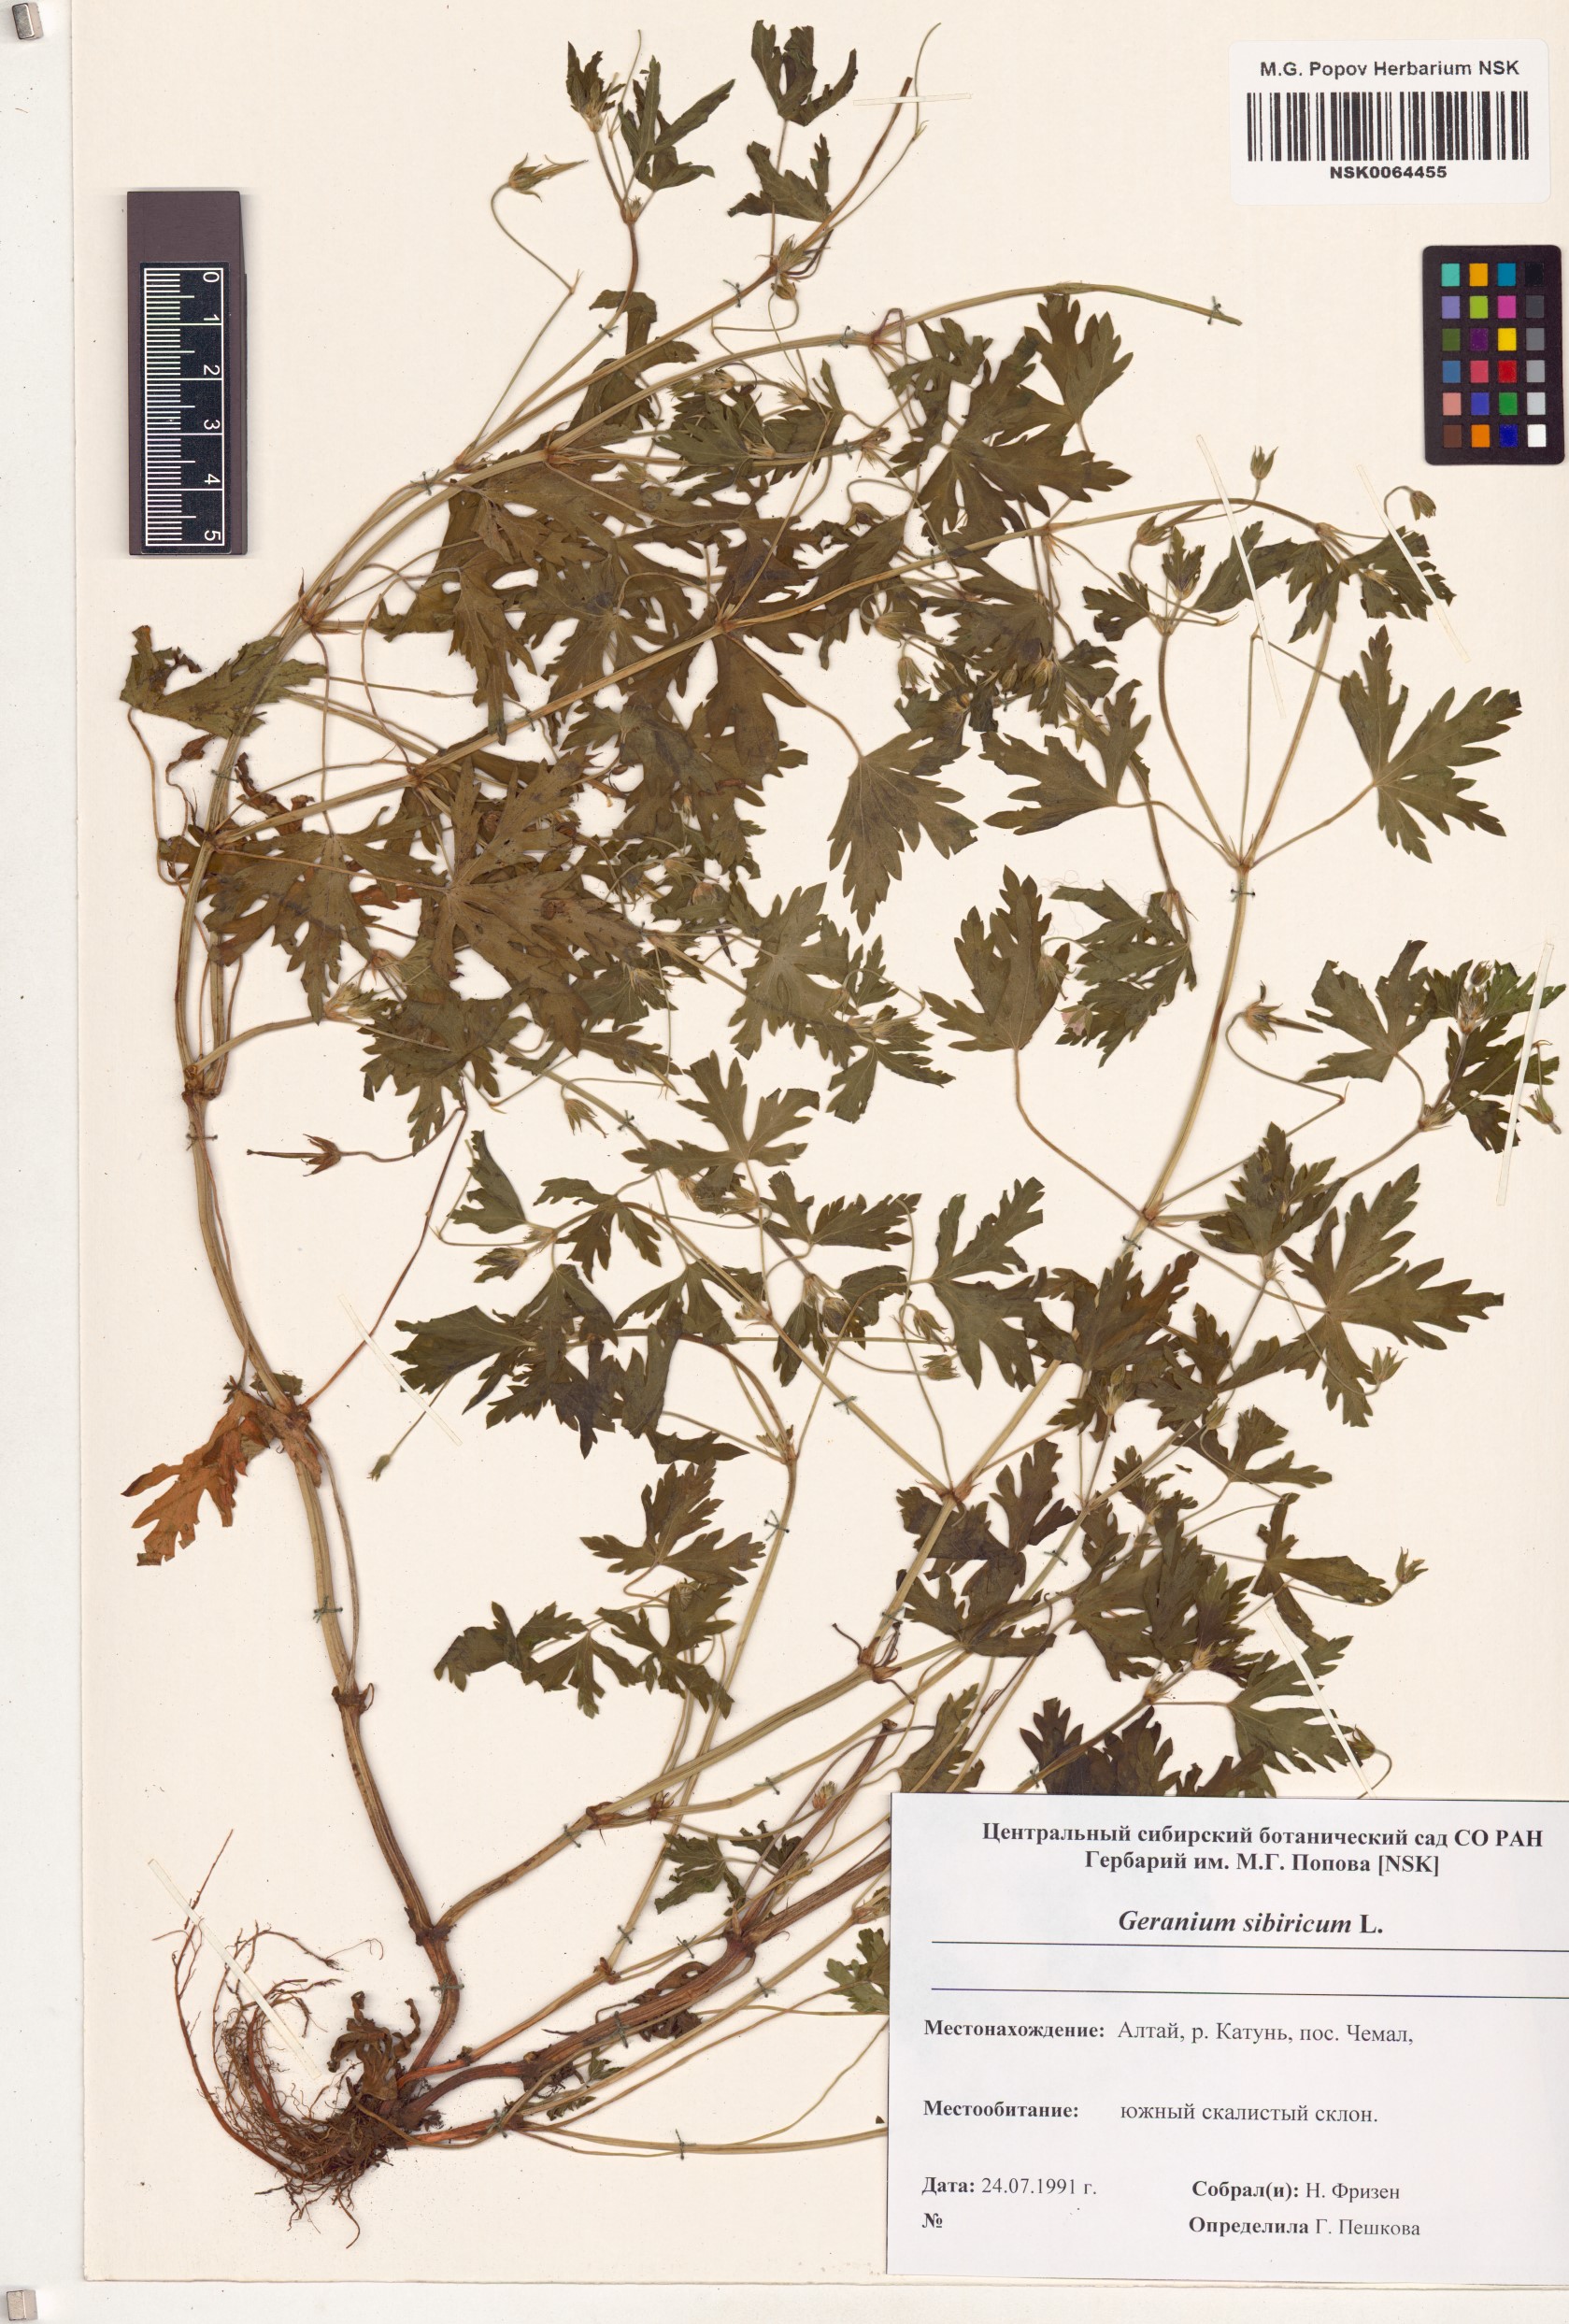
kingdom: Plantae
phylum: Tracheophyta
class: Magnoliopsida
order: Geraniales
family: Geraniaceae
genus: Geranium
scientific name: Geranium sibiricum
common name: Siberian crane's-bill
